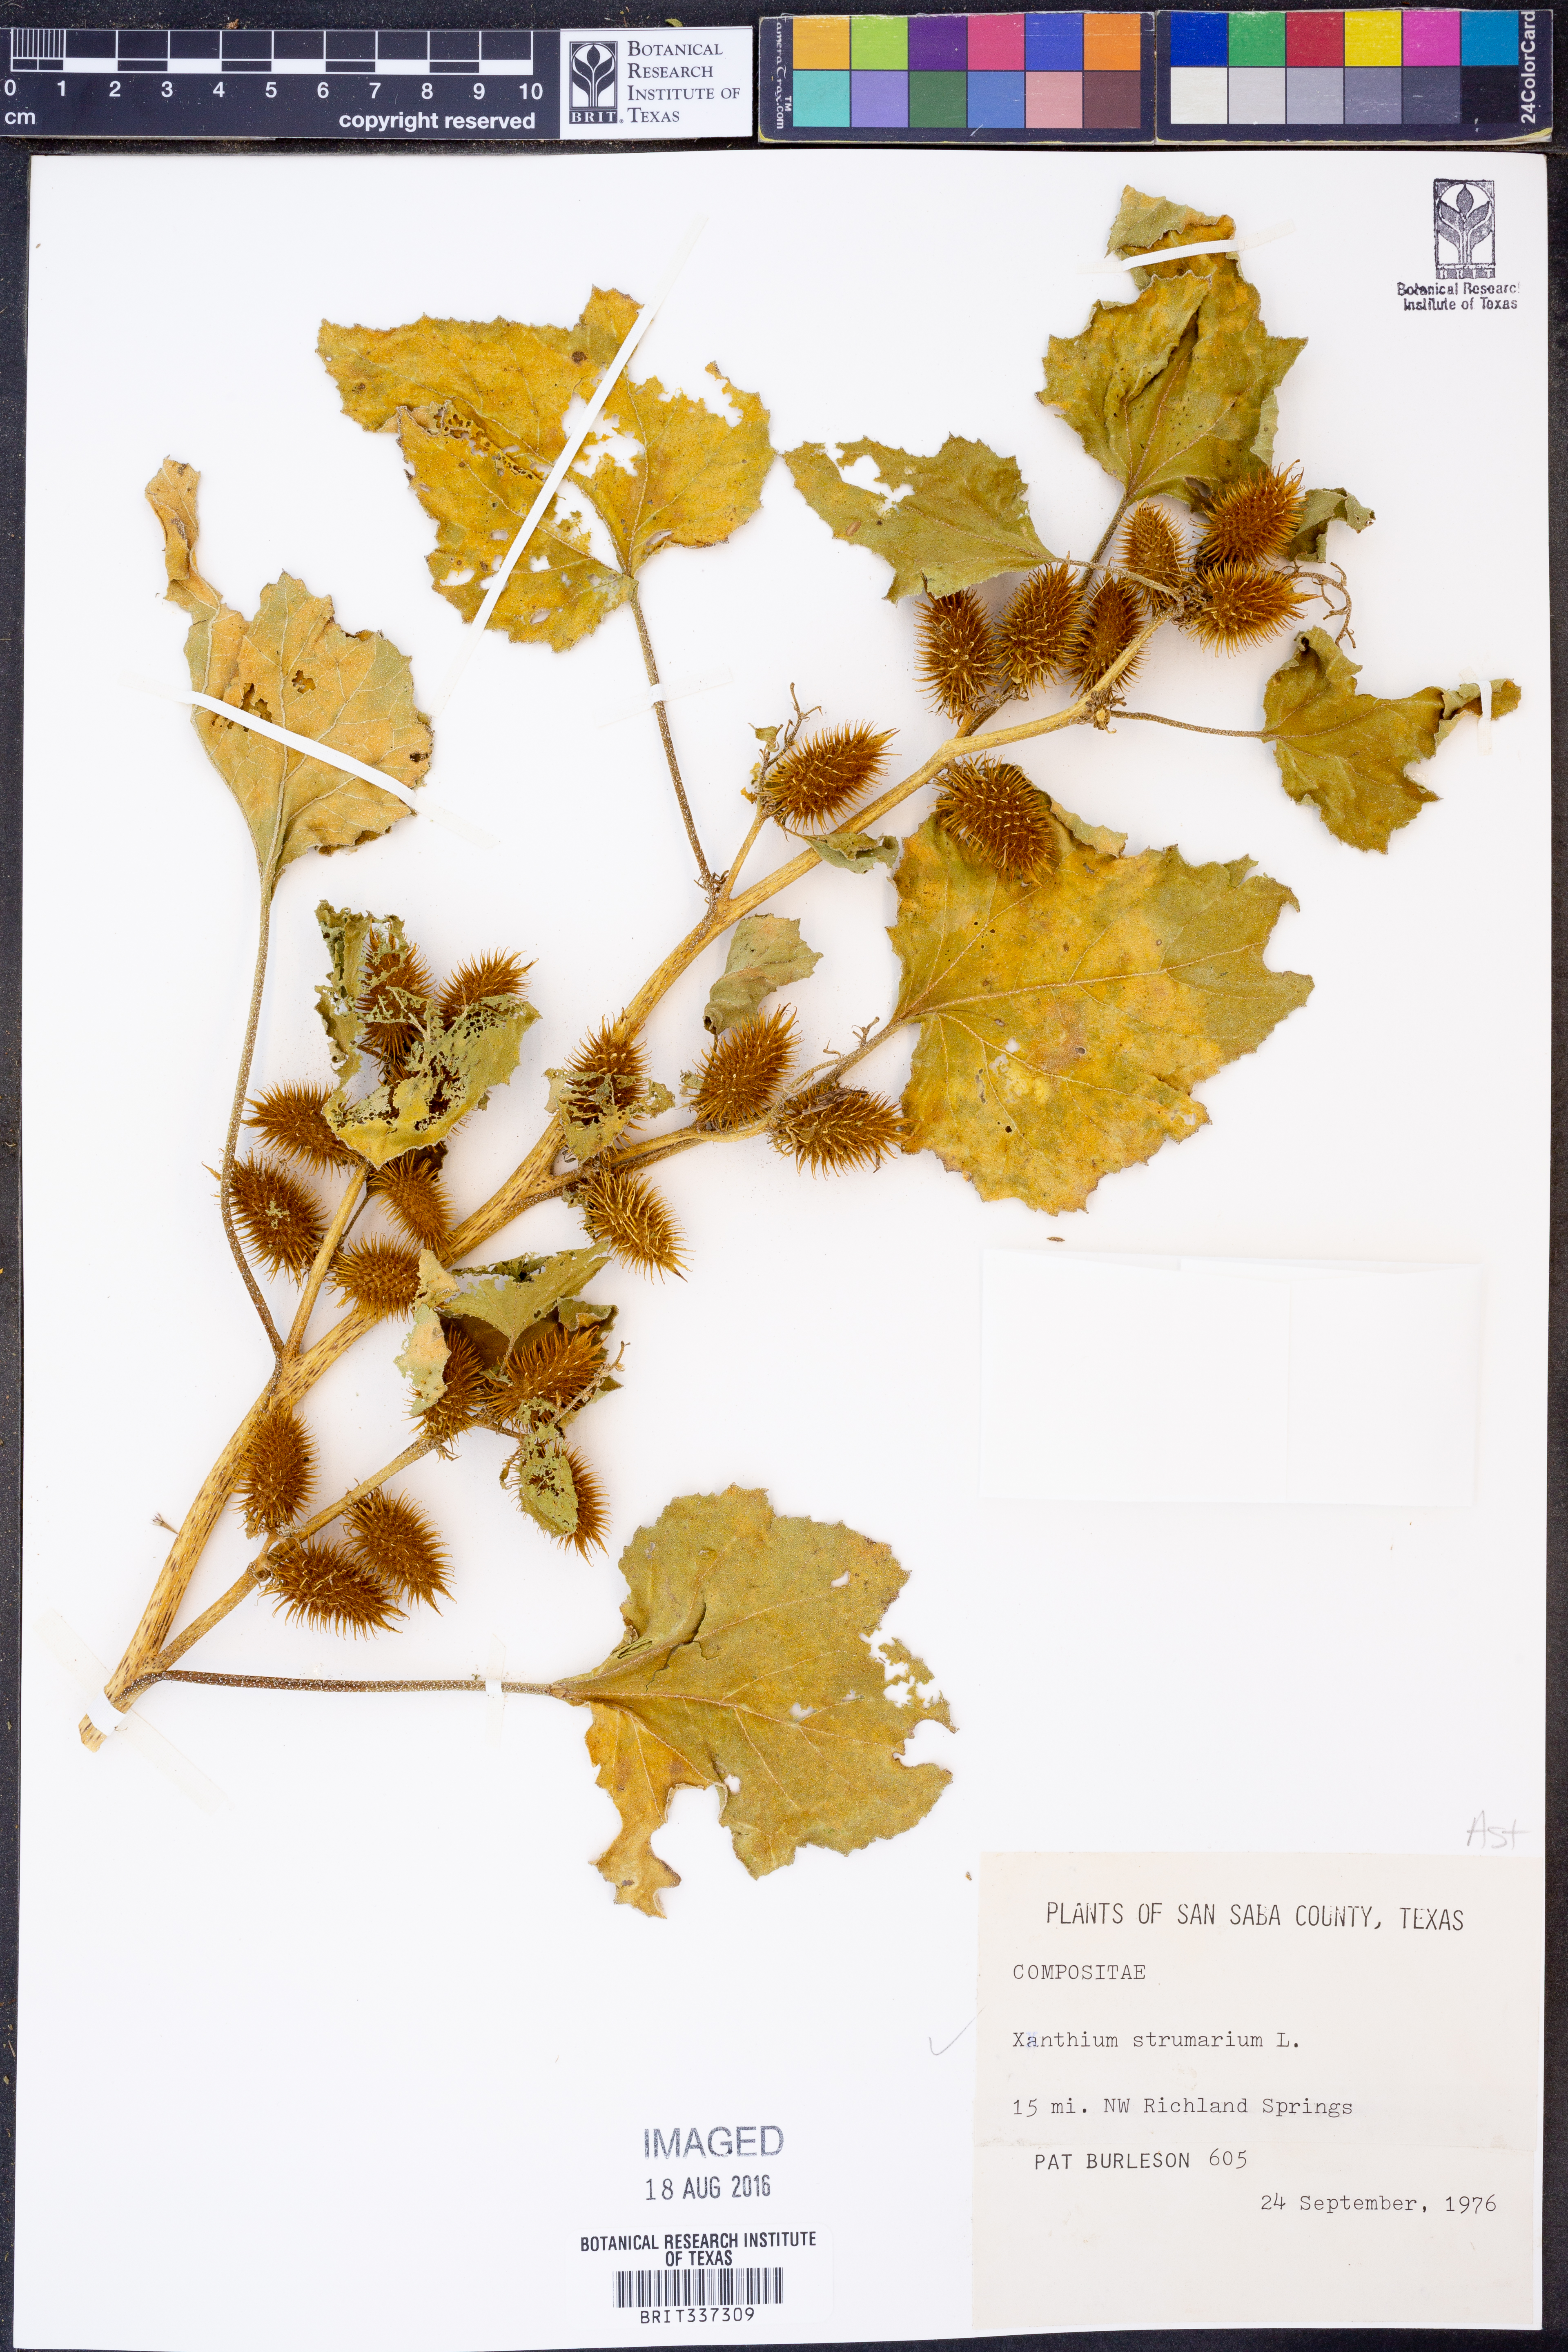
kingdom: Plantae
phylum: Tracheophyta
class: Magnoliopsida
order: Asterales
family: Asteraceae
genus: Xanthium
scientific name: Xanthium strumarium
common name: Rough cocklebur
